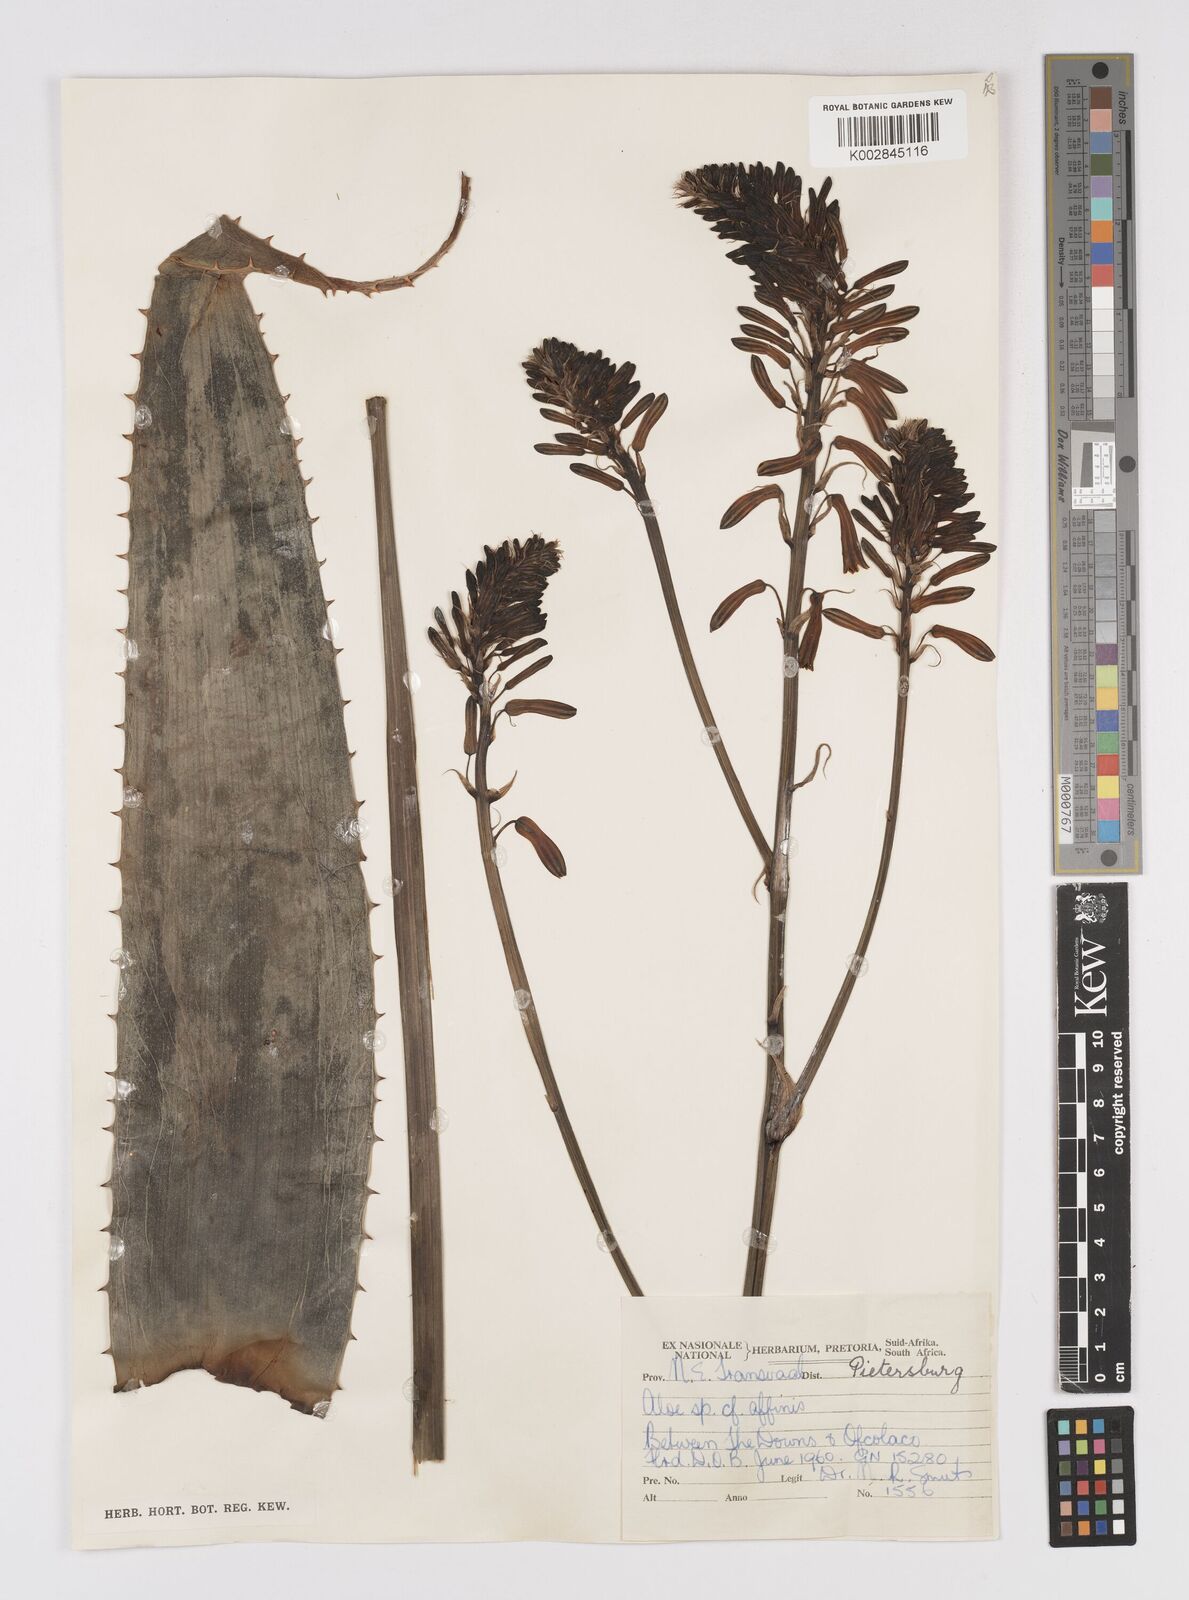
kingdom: Plantae
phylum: Tracheophyta
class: Liliopsida
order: Asparagales
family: Asphodelaceae
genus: Aloe
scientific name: Aloe affinis
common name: Spotted aloe
